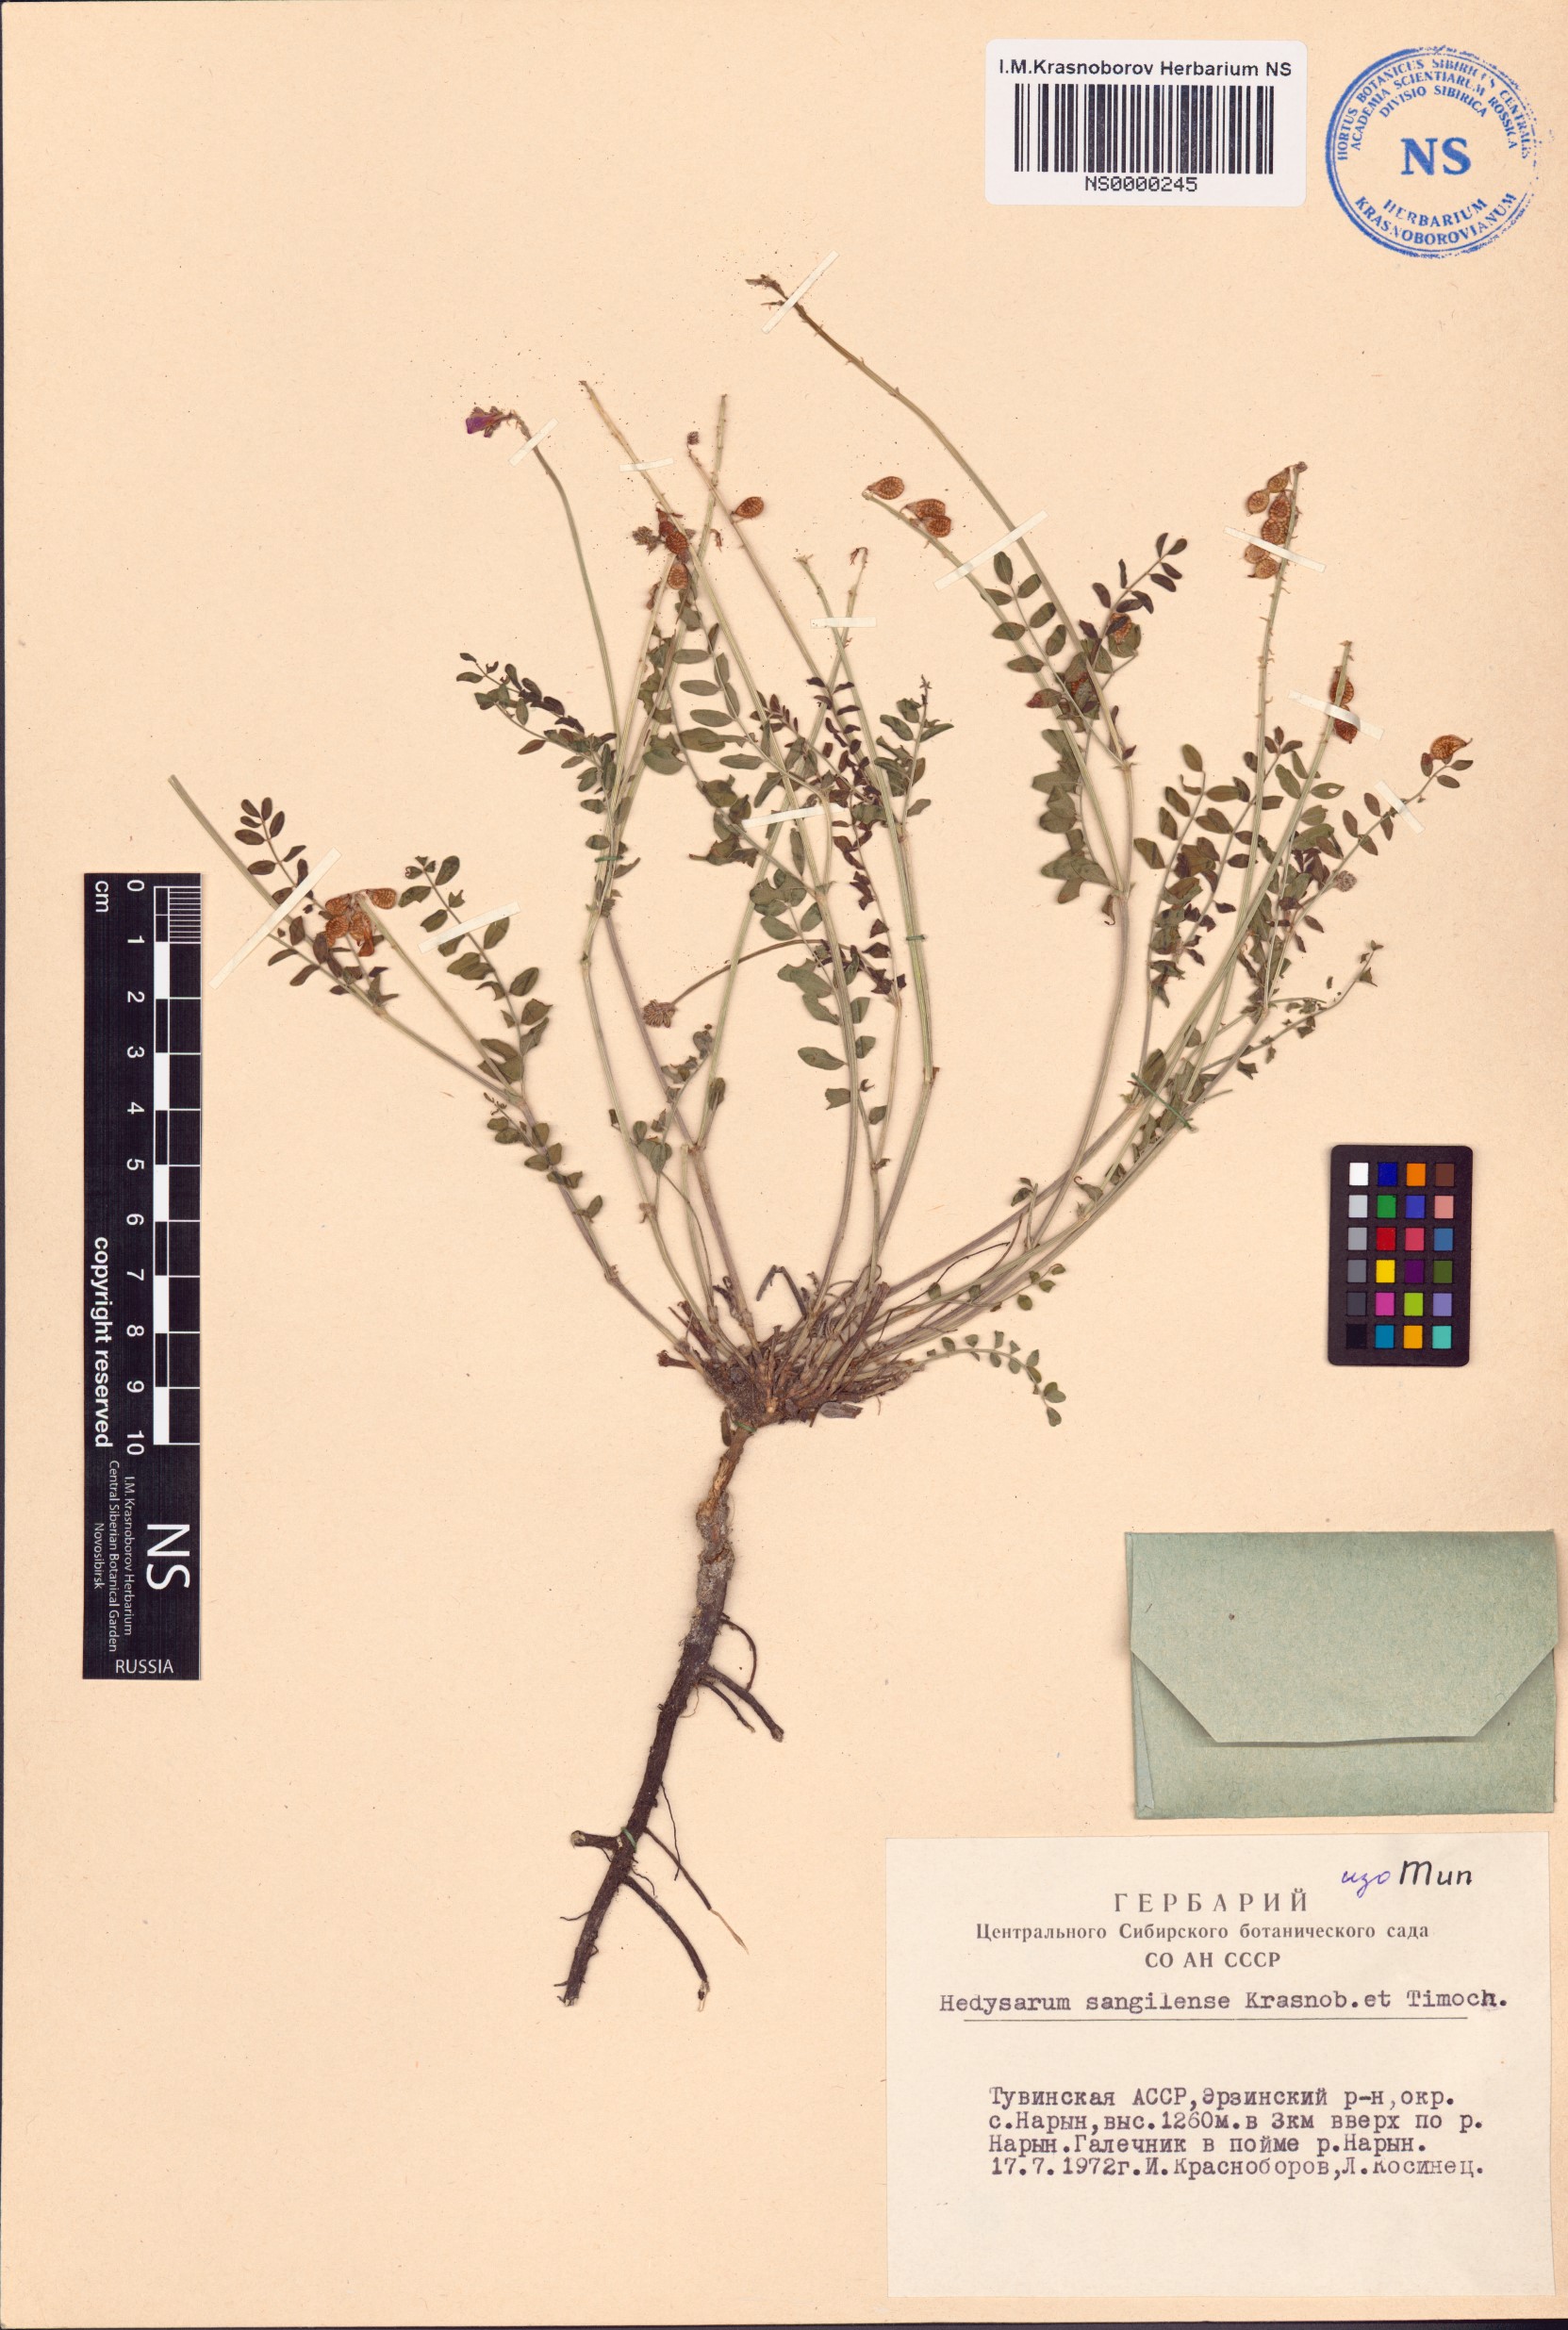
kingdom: Plantae
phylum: Tracheophyta
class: Magnoliopsida
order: Fabales
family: Fabaceae
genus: Hedysarum
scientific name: Hedysarum sangilense
